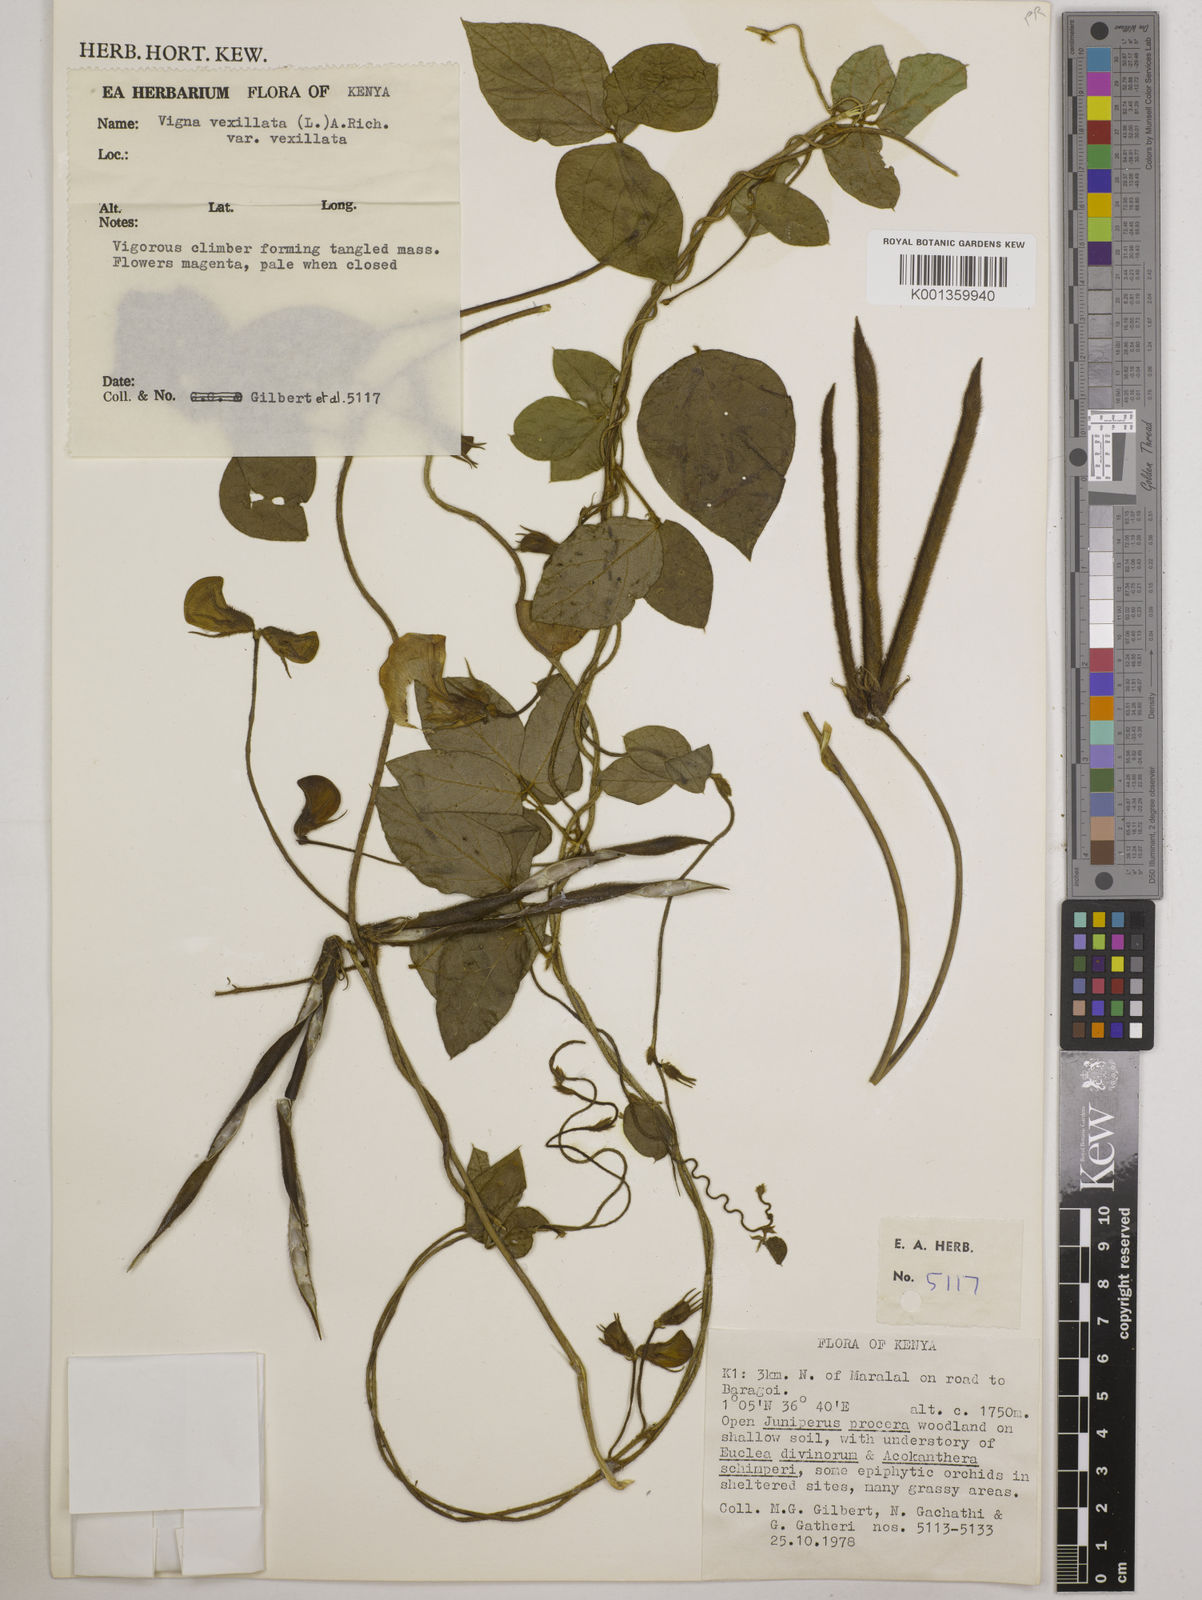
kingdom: Plantae
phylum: Tracheophyta
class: Magnoliopsida
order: Fabales
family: Fabaceae
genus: Vigna
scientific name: Vigna vexillata
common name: Zombi pea
